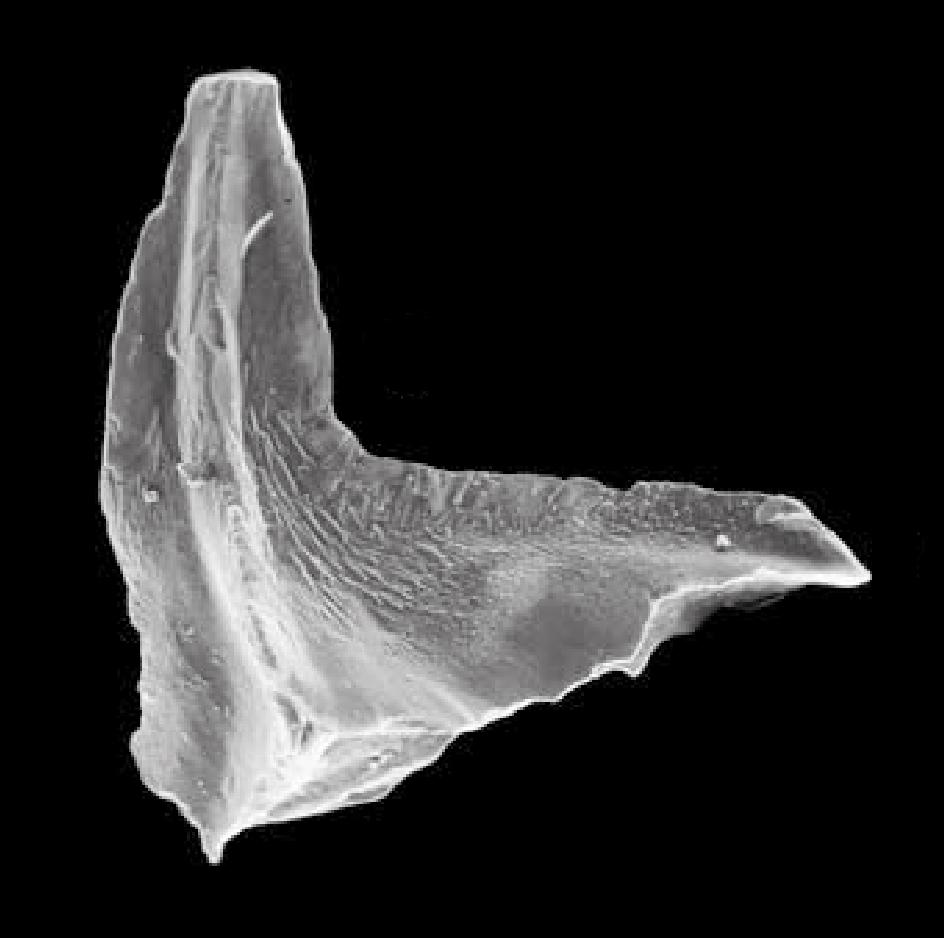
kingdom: Animalia
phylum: Chordata
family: Balognathidae
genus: Prioniodus
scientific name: Prioniodus
